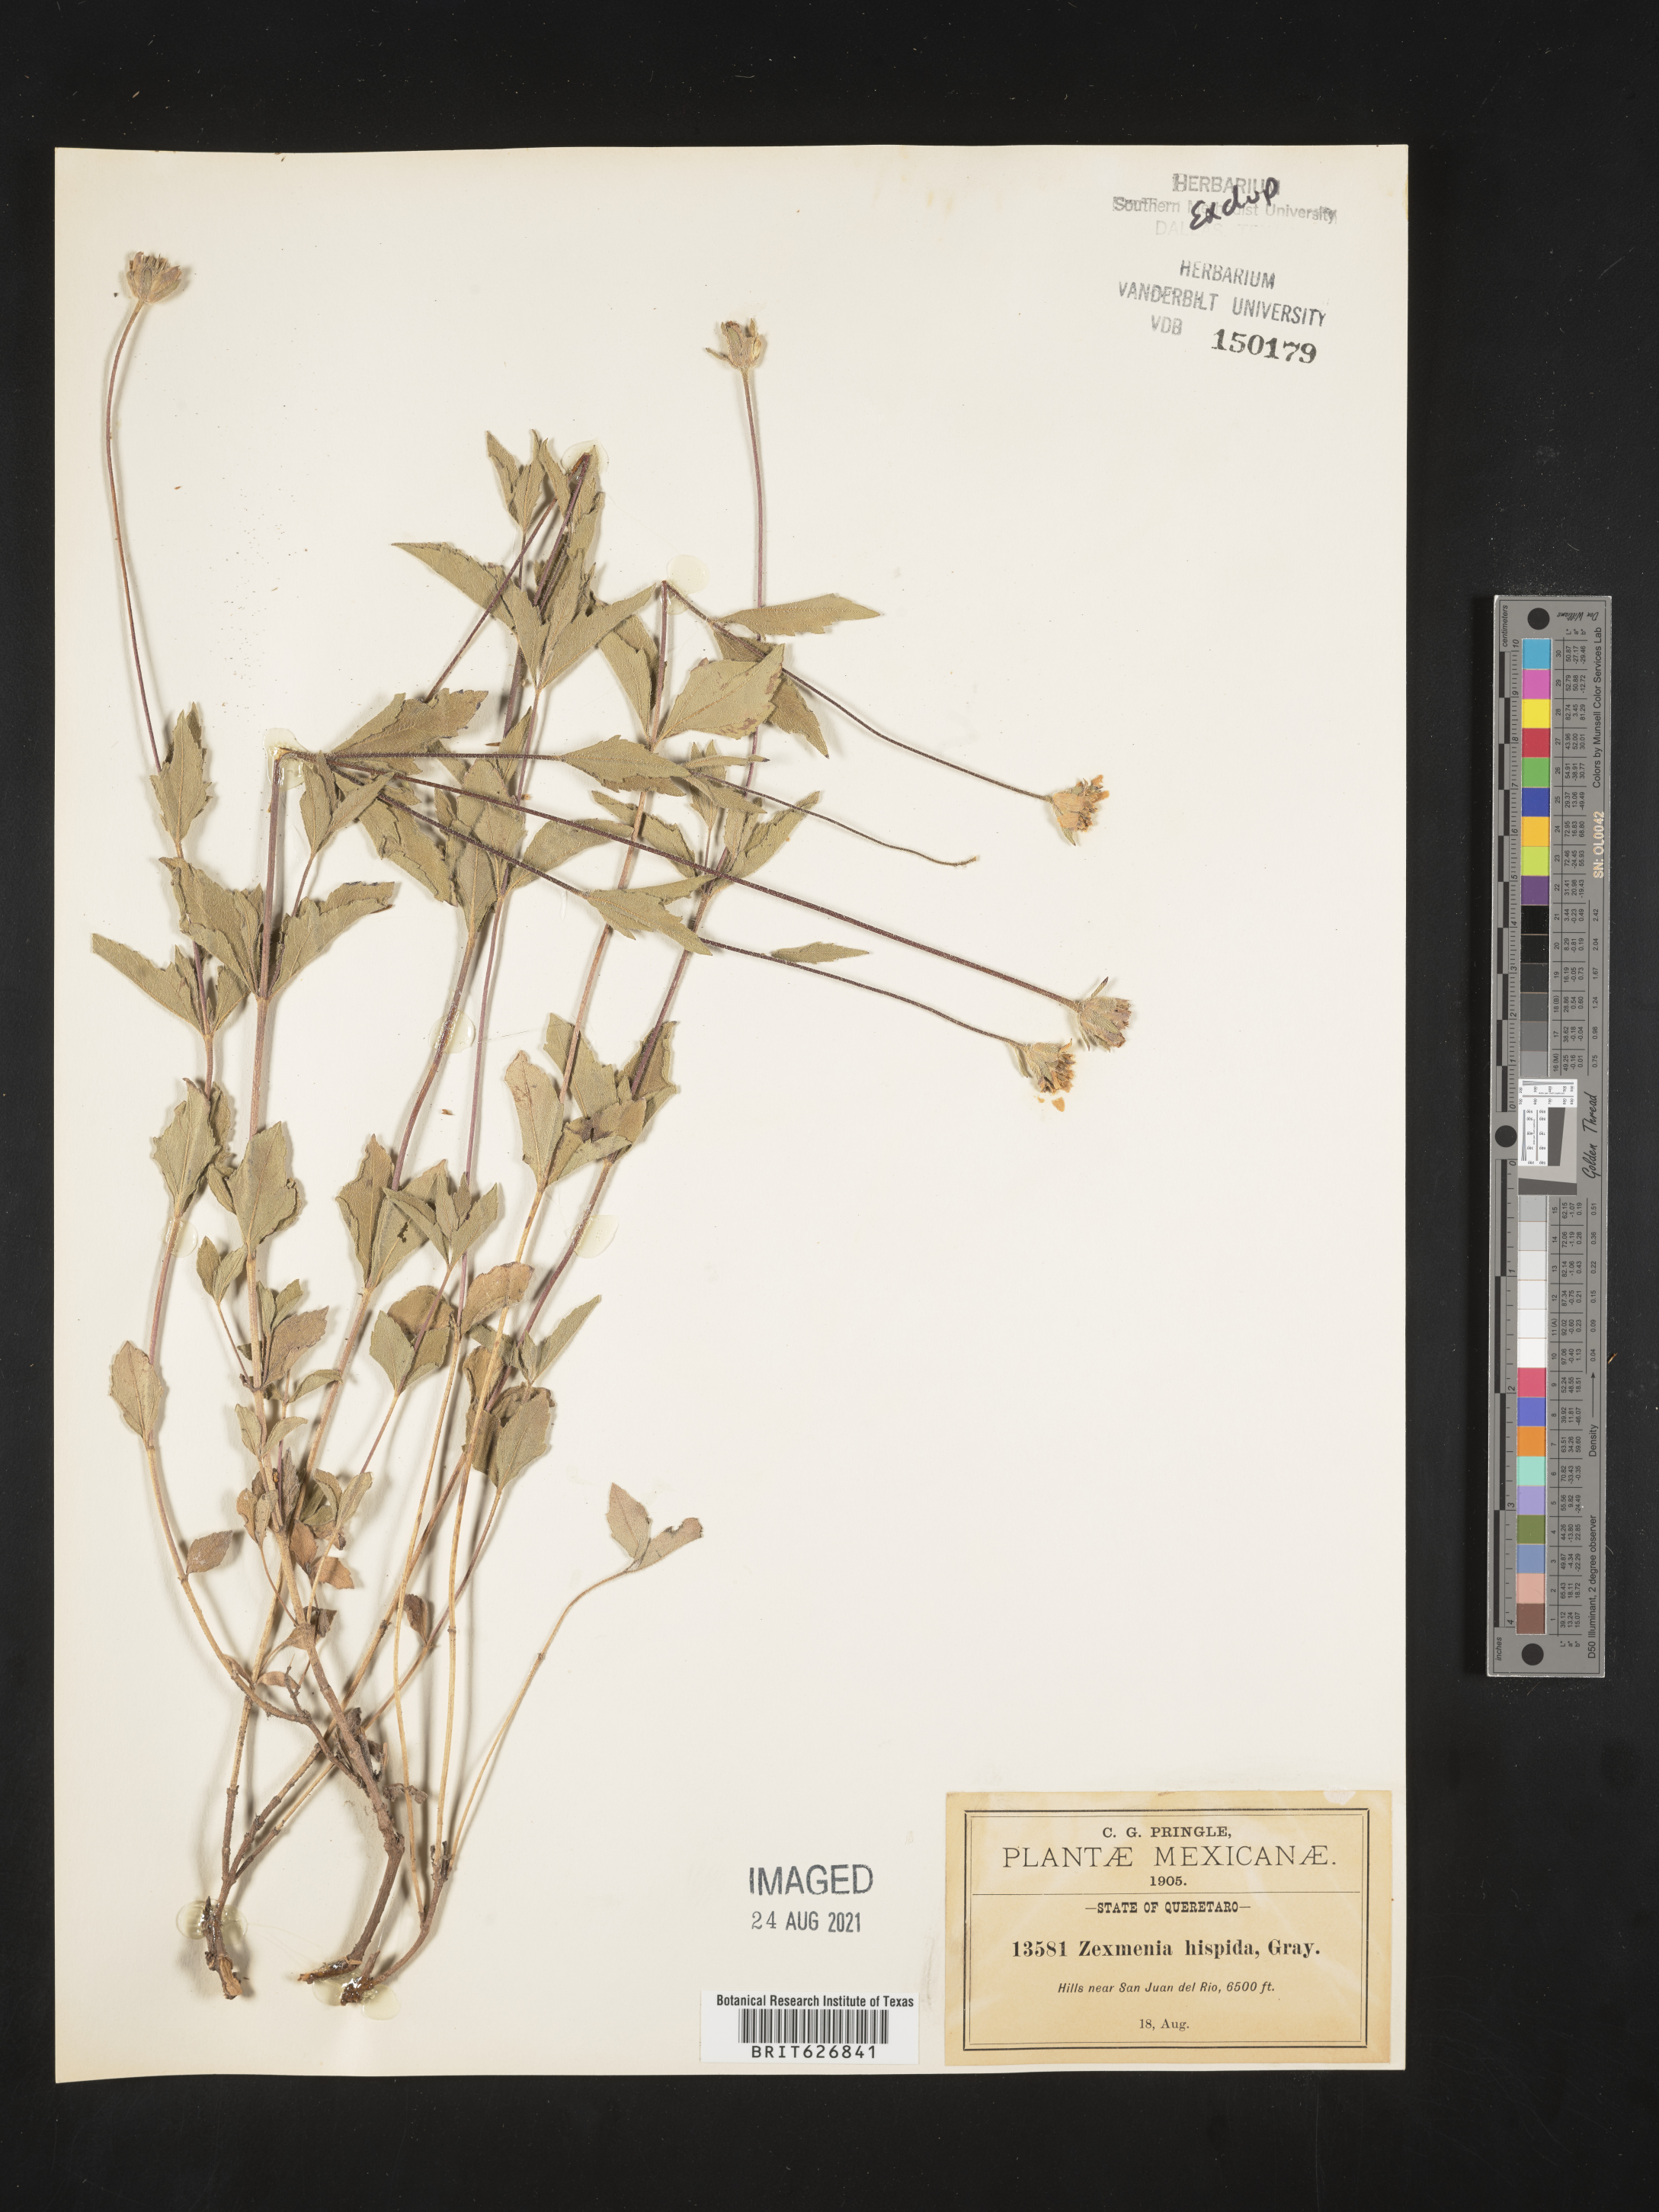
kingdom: Plantae
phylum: Tracheophyta
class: Magnoliopsida
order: Asterales
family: Asteraceae
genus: Zexmenia
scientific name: Zexmenia
